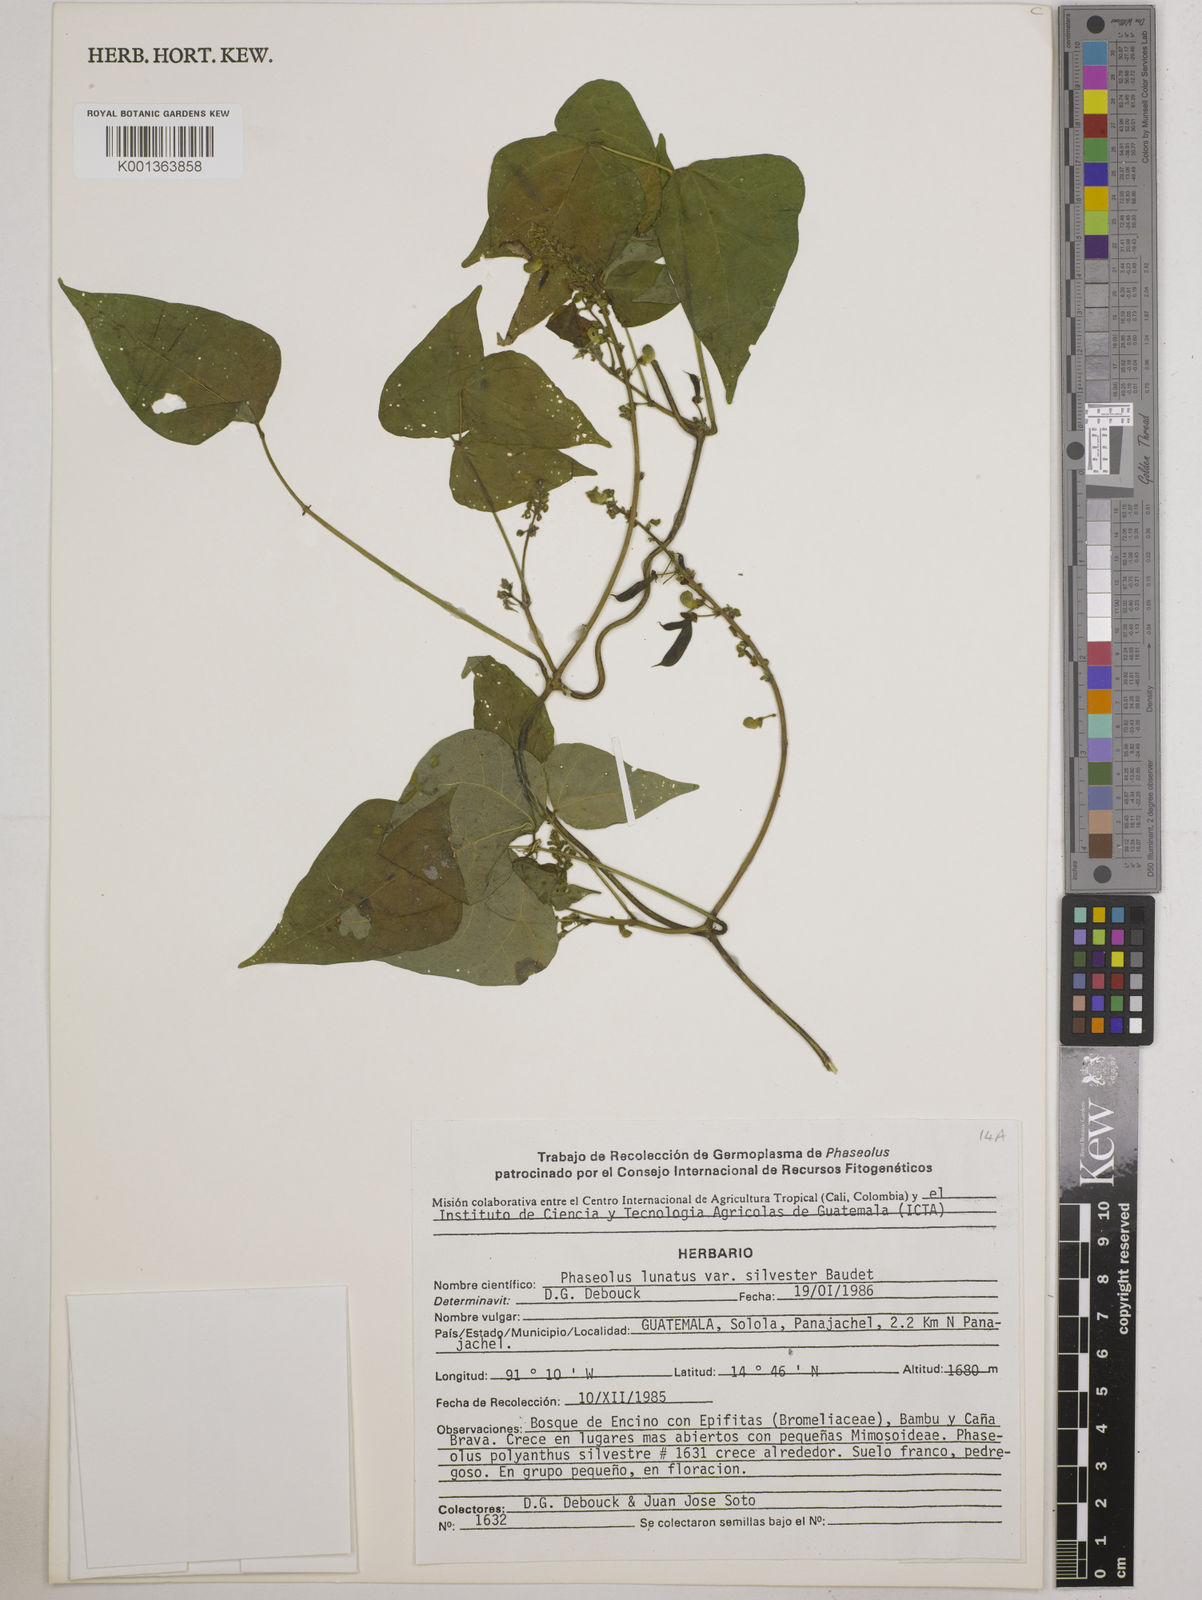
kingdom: Plantae
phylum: Tracheophyta
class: Magnoliopsida
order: Fabales
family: Fabaceae
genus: Phaseolus
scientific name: Phaseolus lunatus
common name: Sieva bean
